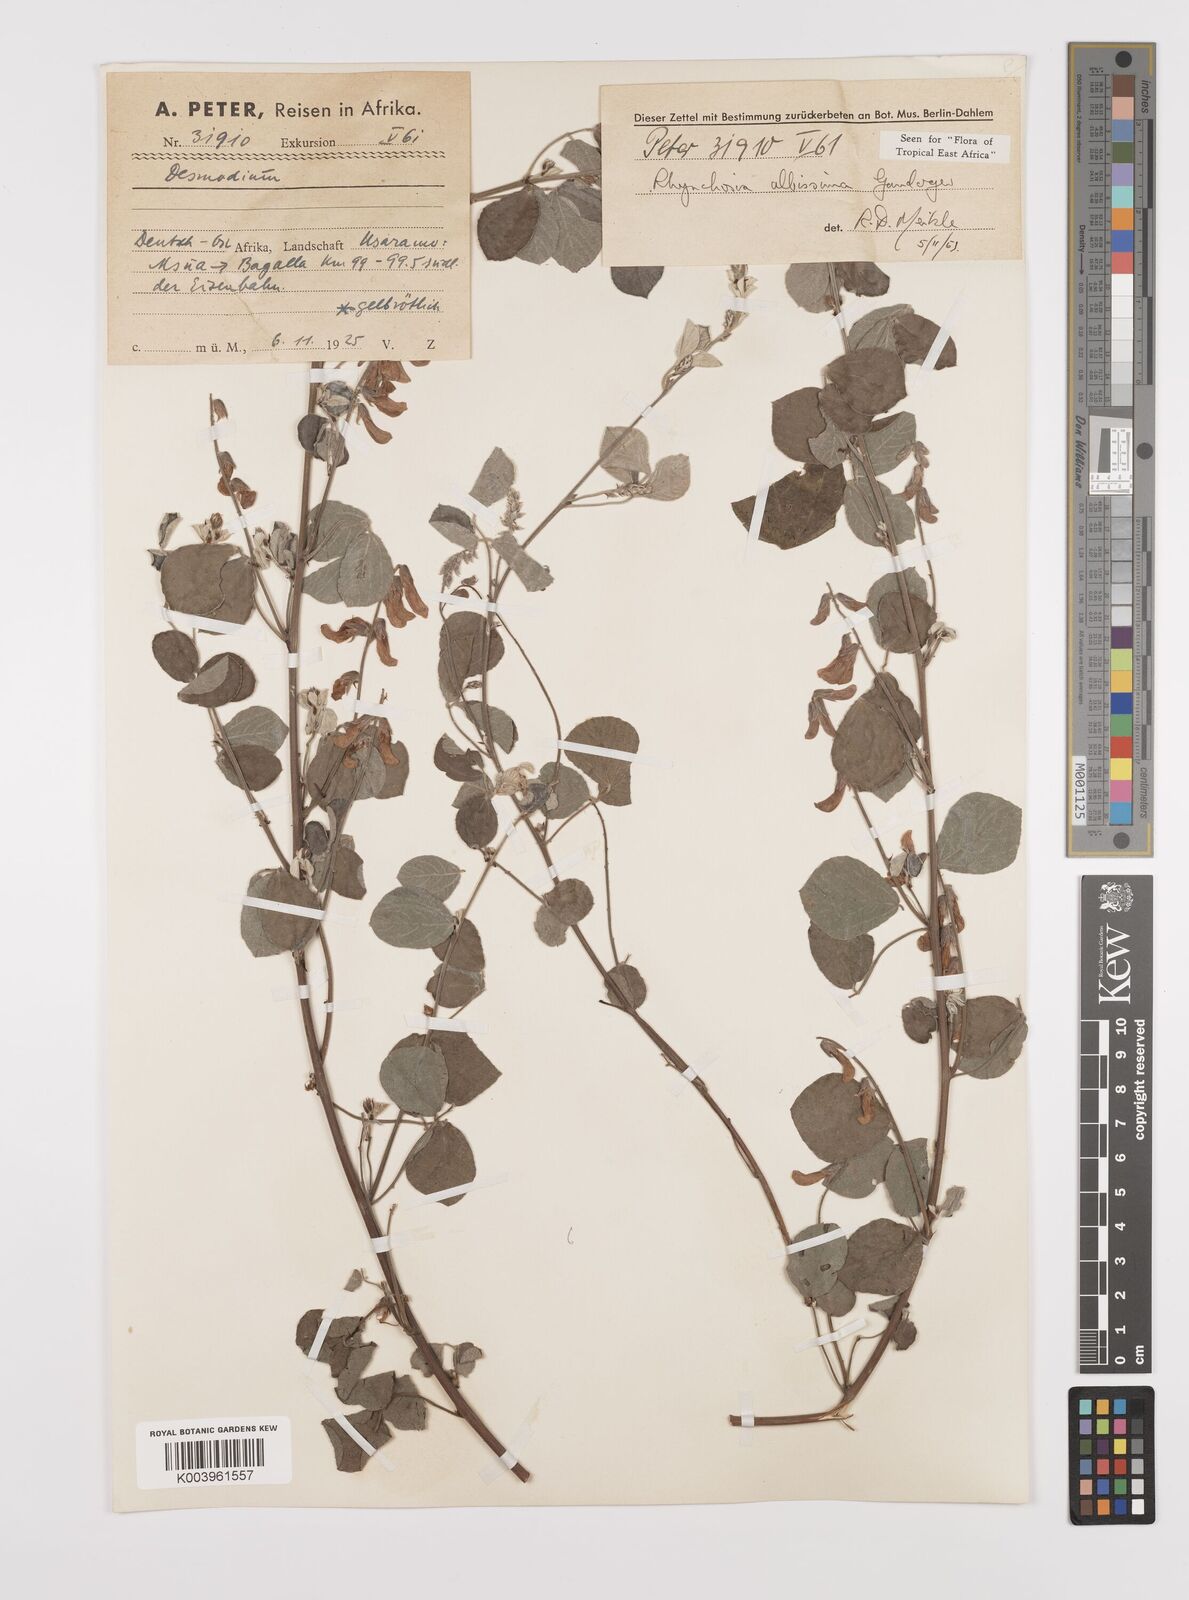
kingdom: Plantae
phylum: Tracheophyta
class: Magnoliopsida
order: Fabales
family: Fabaceae
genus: Rhynchosia
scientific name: Rhynchosia albissima
